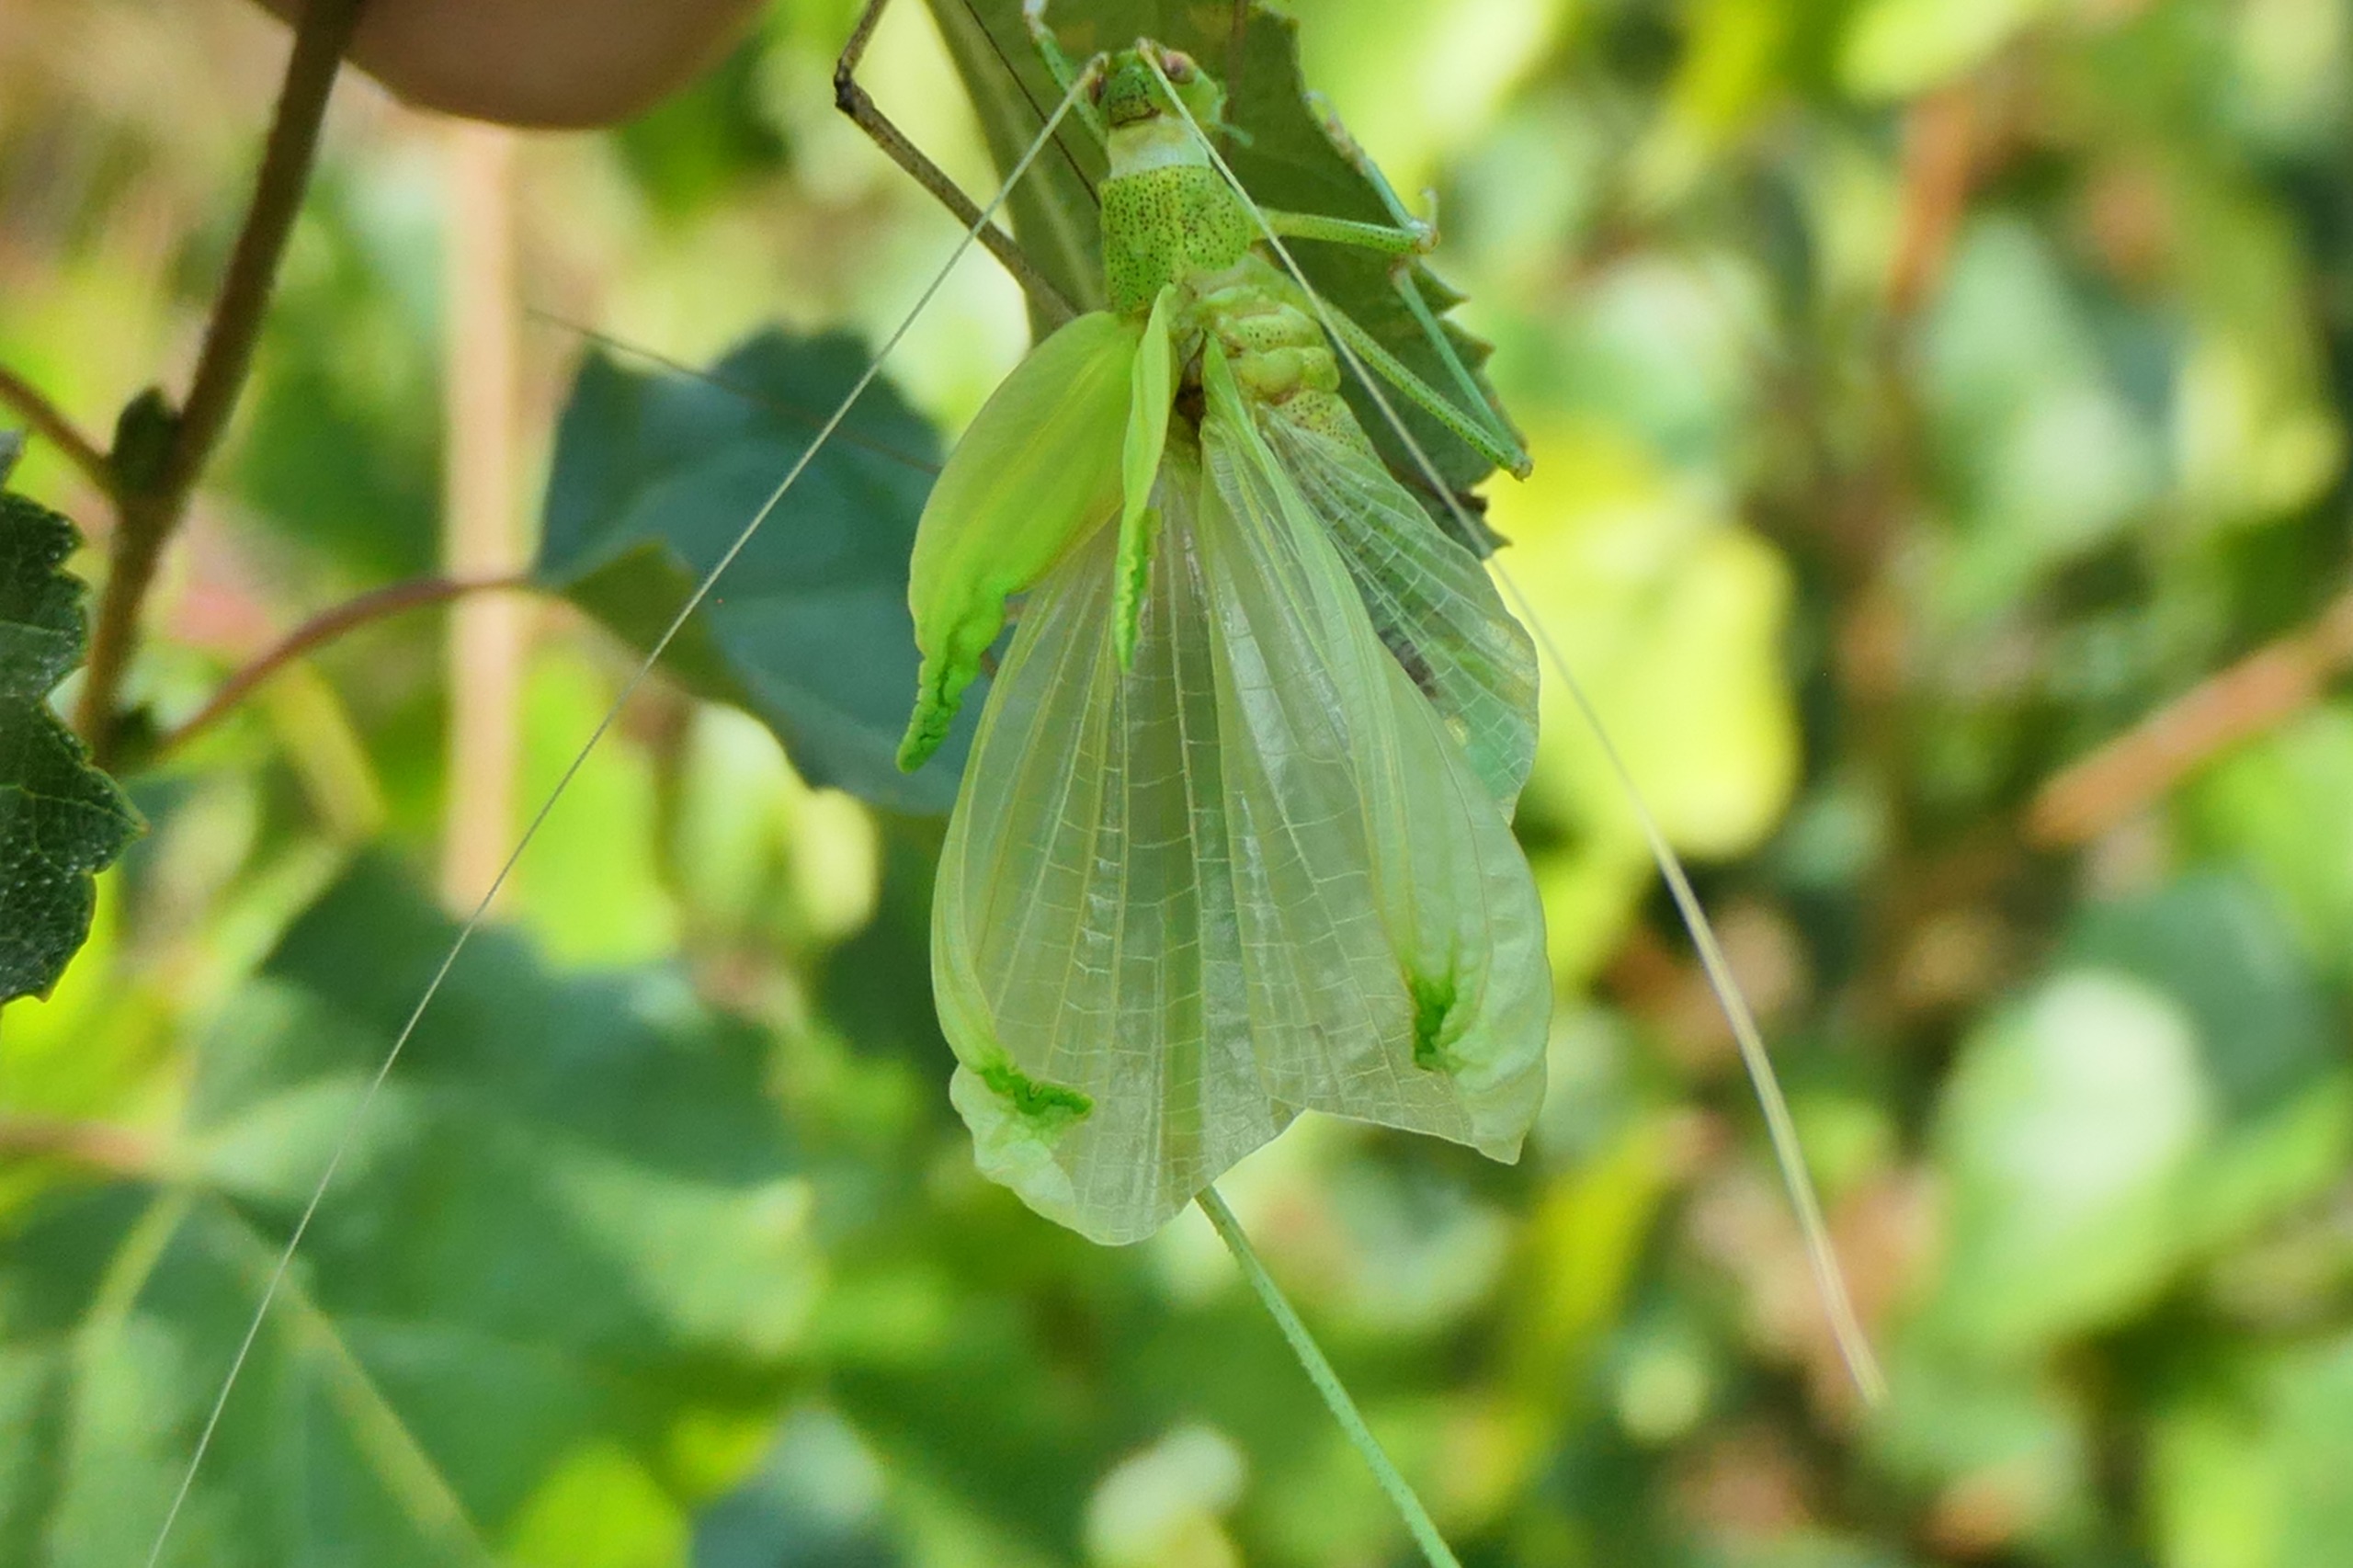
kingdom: Animalia
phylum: Arthropoda
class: Insecta
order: Orthoptera
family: Tettigoniidae
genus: Phaneroptera
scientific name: Phaneroptera falcata
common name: Seglgræshoppe
